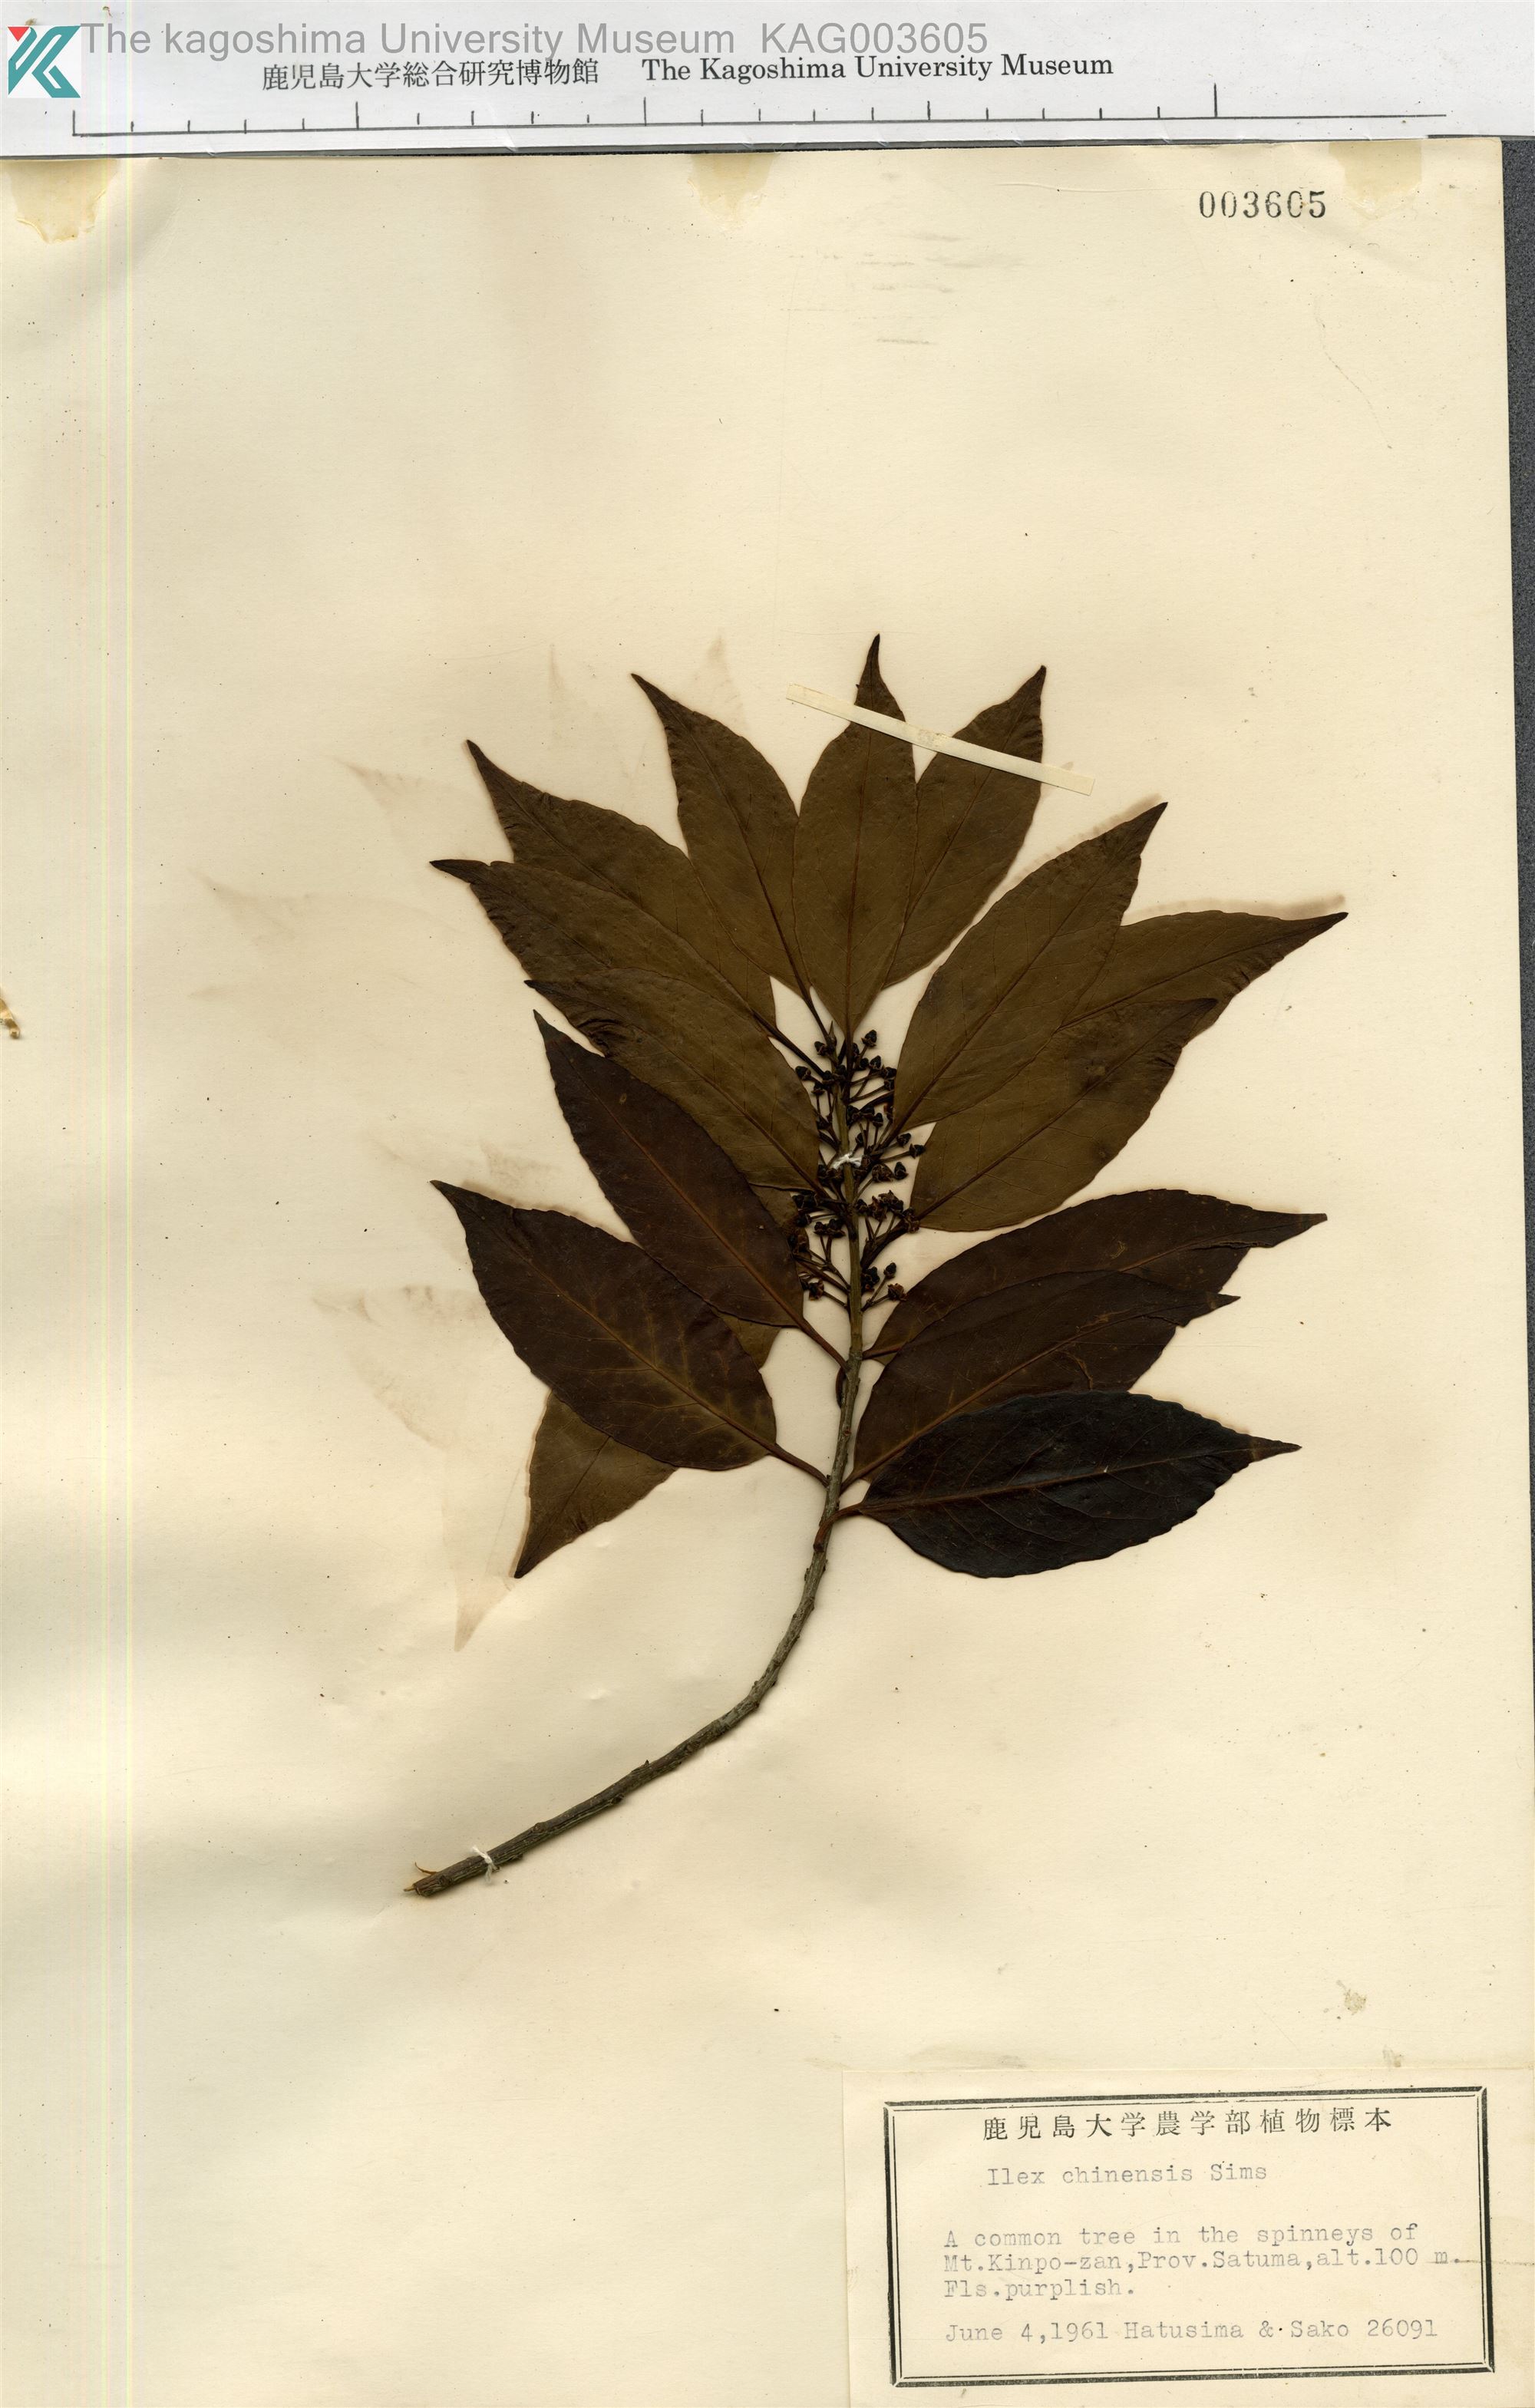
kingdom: Plantae
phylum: Tracheophyta
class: Magnoliopsida
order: Aquifoliales
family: Aquifoliaceae
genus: Ilex
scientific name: Ilex chinensis
